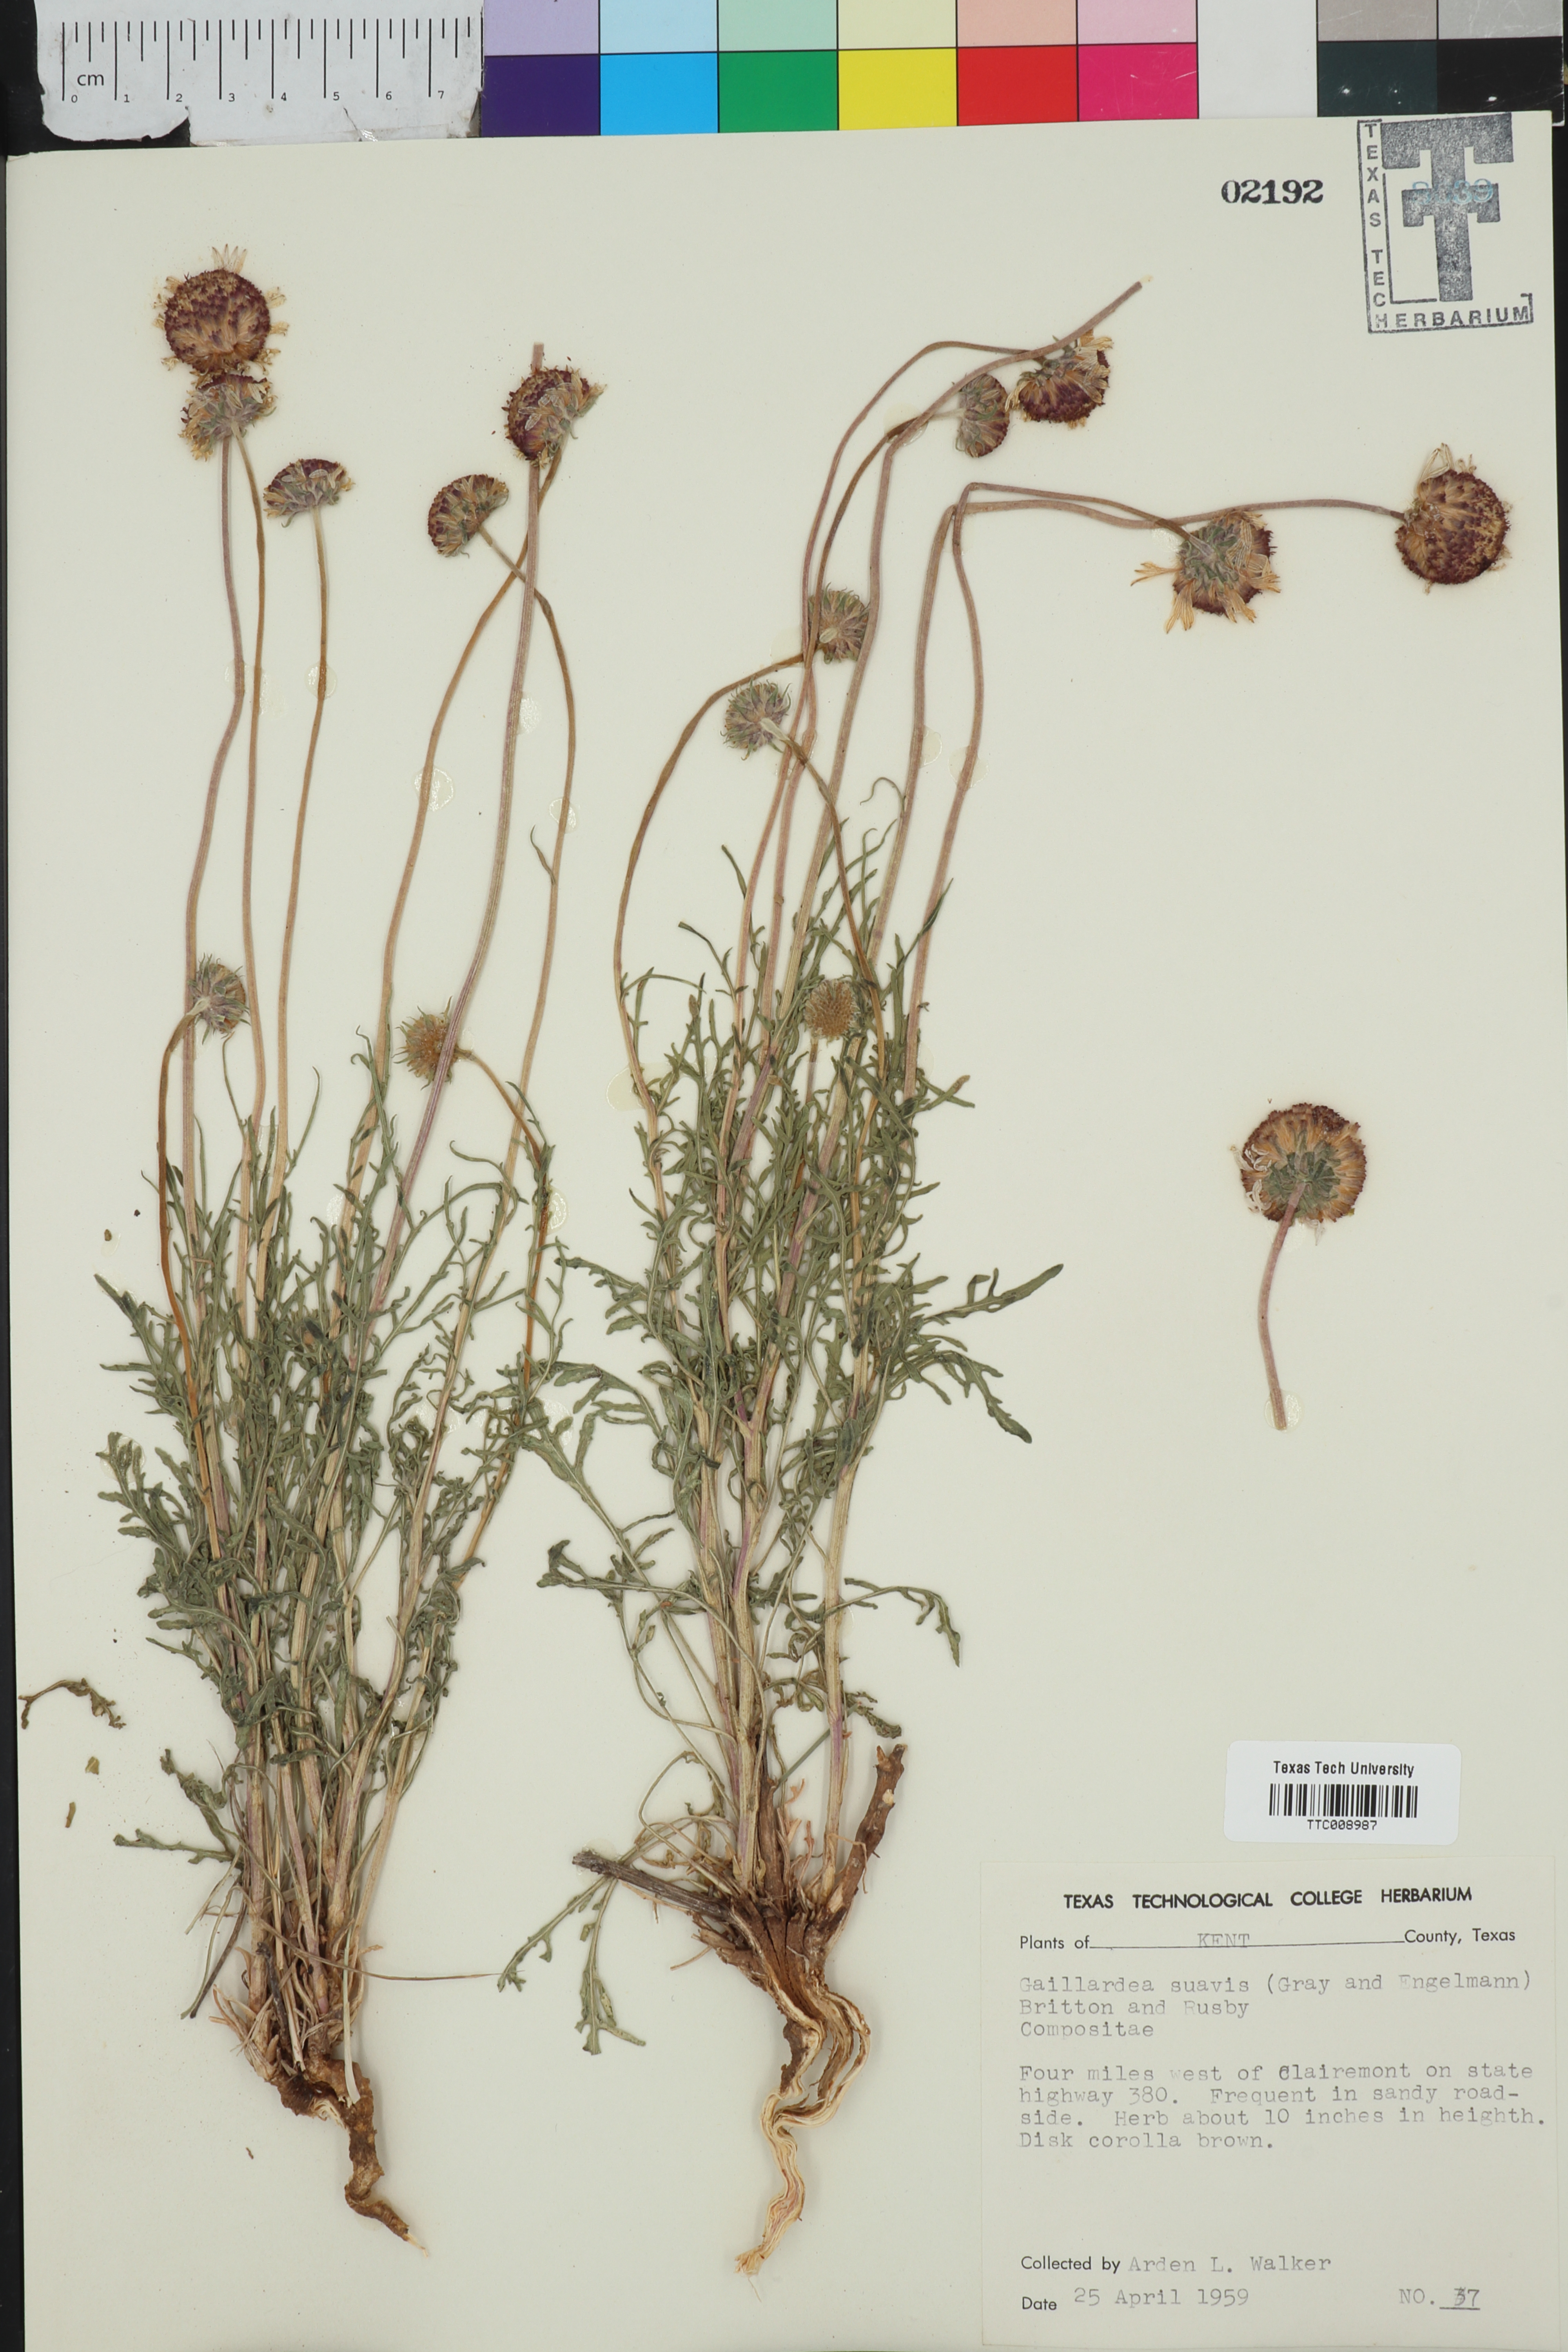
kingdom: Plantae
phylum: Tracheophyta
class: Magnoliopsida
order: Asterales
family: Asteraceae
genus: Gaillardia
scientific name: Gaillardia suavis
